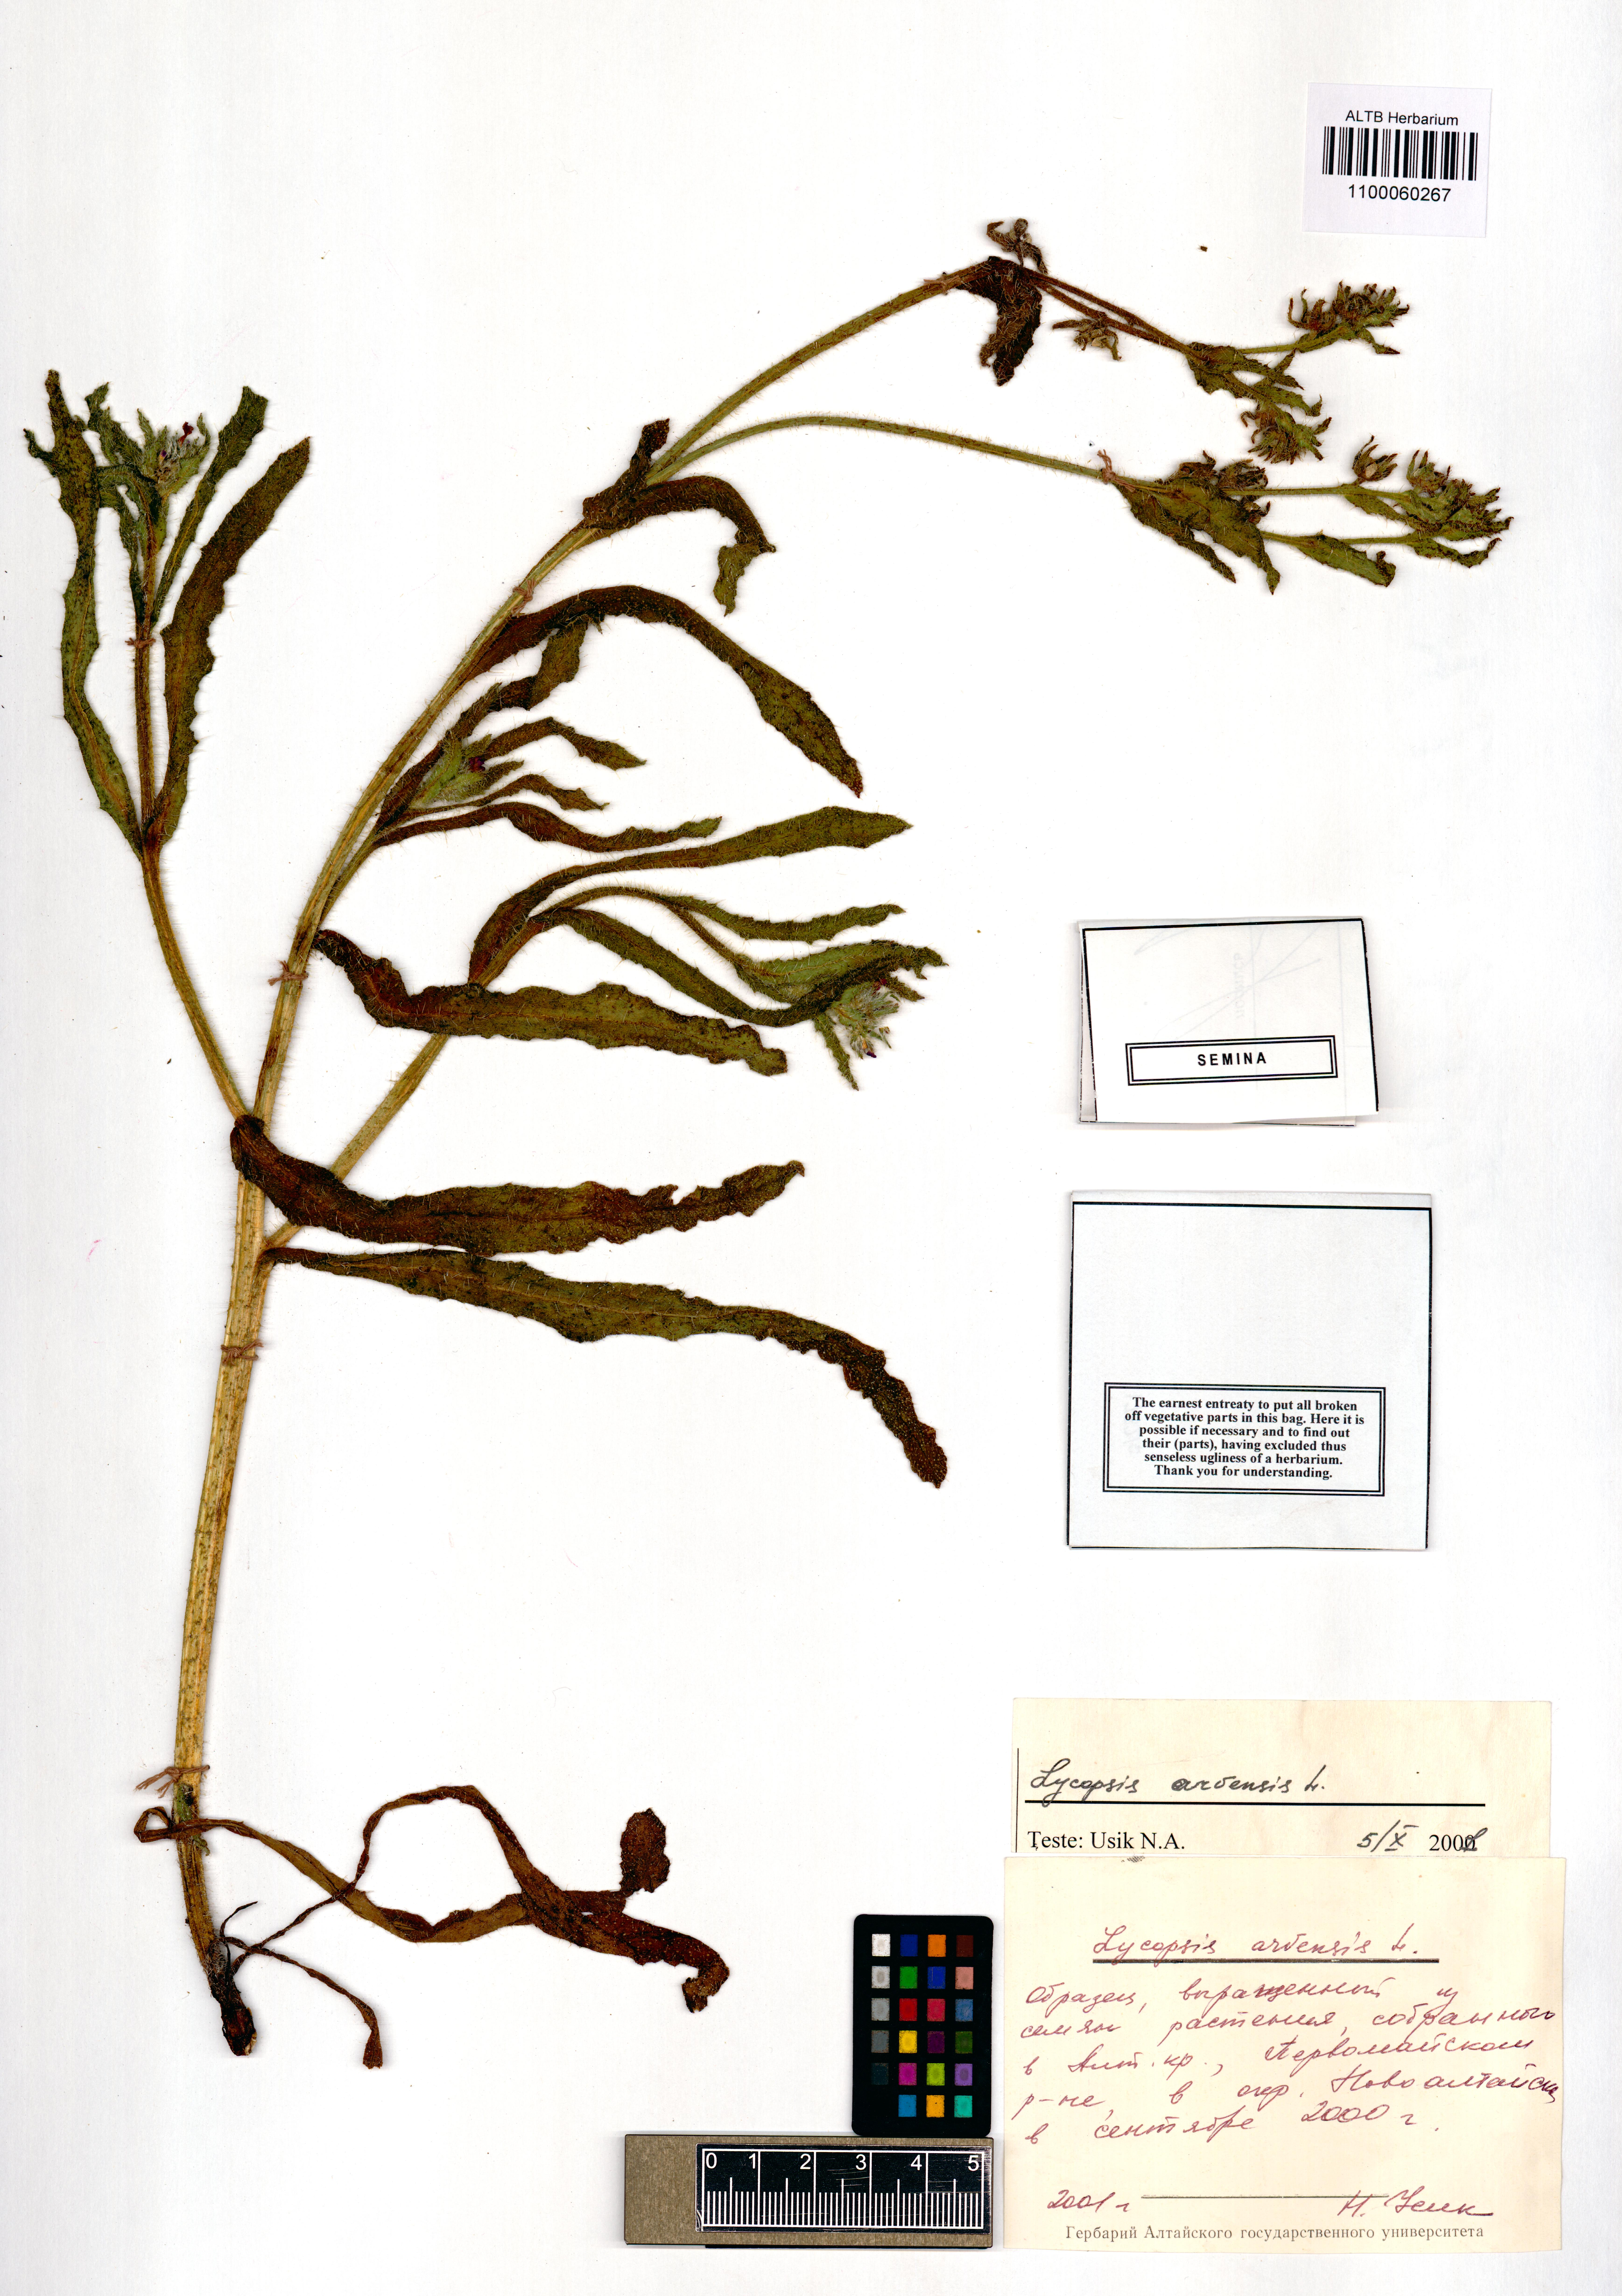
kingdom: Plantae
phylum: Tracheophyta
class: Magnoliopsida
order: Boraginales
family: Boraginaceae
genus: Lycopsis
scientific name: Lycopsis arvensis
